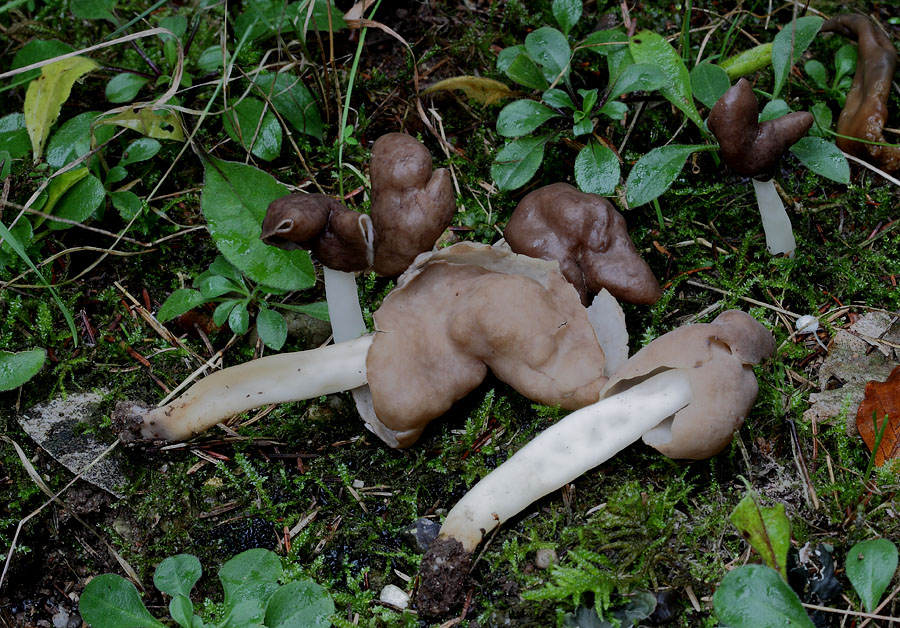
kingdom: Fungi
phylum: Ascomycota
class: Pezizomycetes
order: Pezizales
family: Helvellaceae
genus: Helvella
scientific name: Helvella elastica
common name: elastik-foldhat
